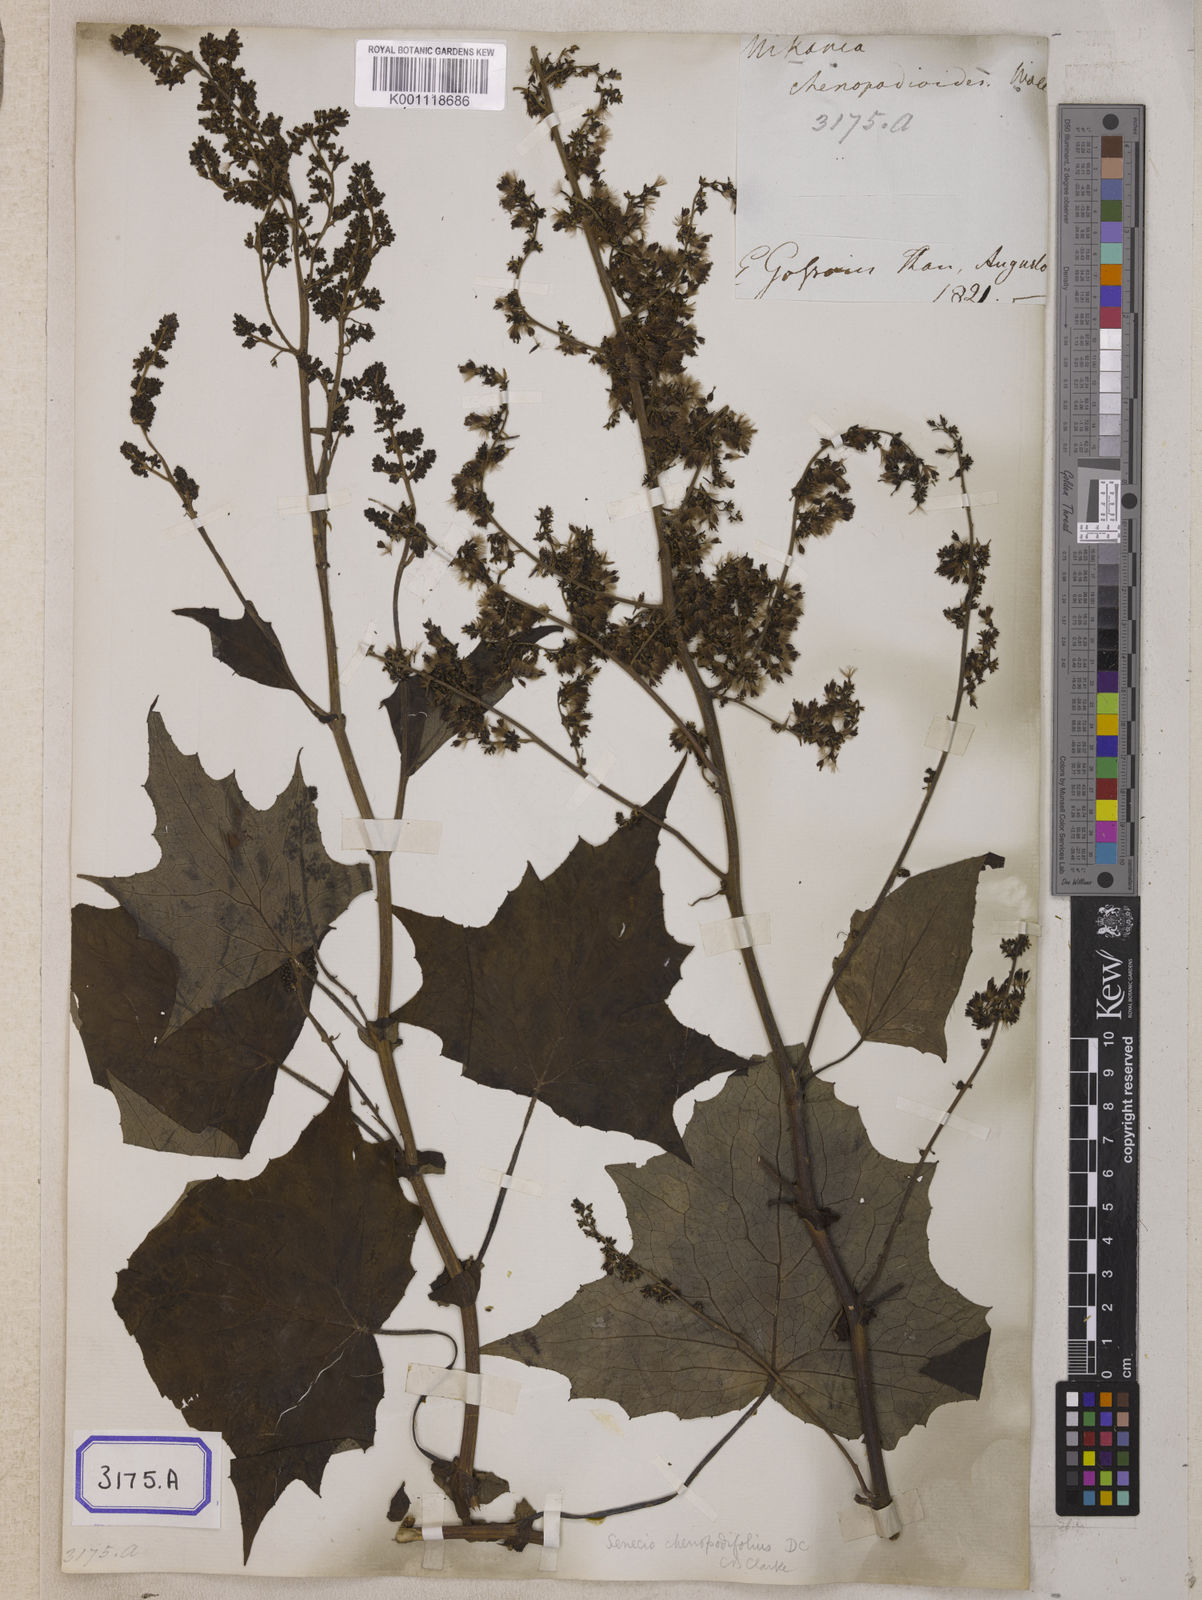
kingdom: Plantae
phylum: Tracheophyta
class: Magnoliopsida
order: Asterales
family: Asteraceae
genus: Mikania
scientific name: Mikania
